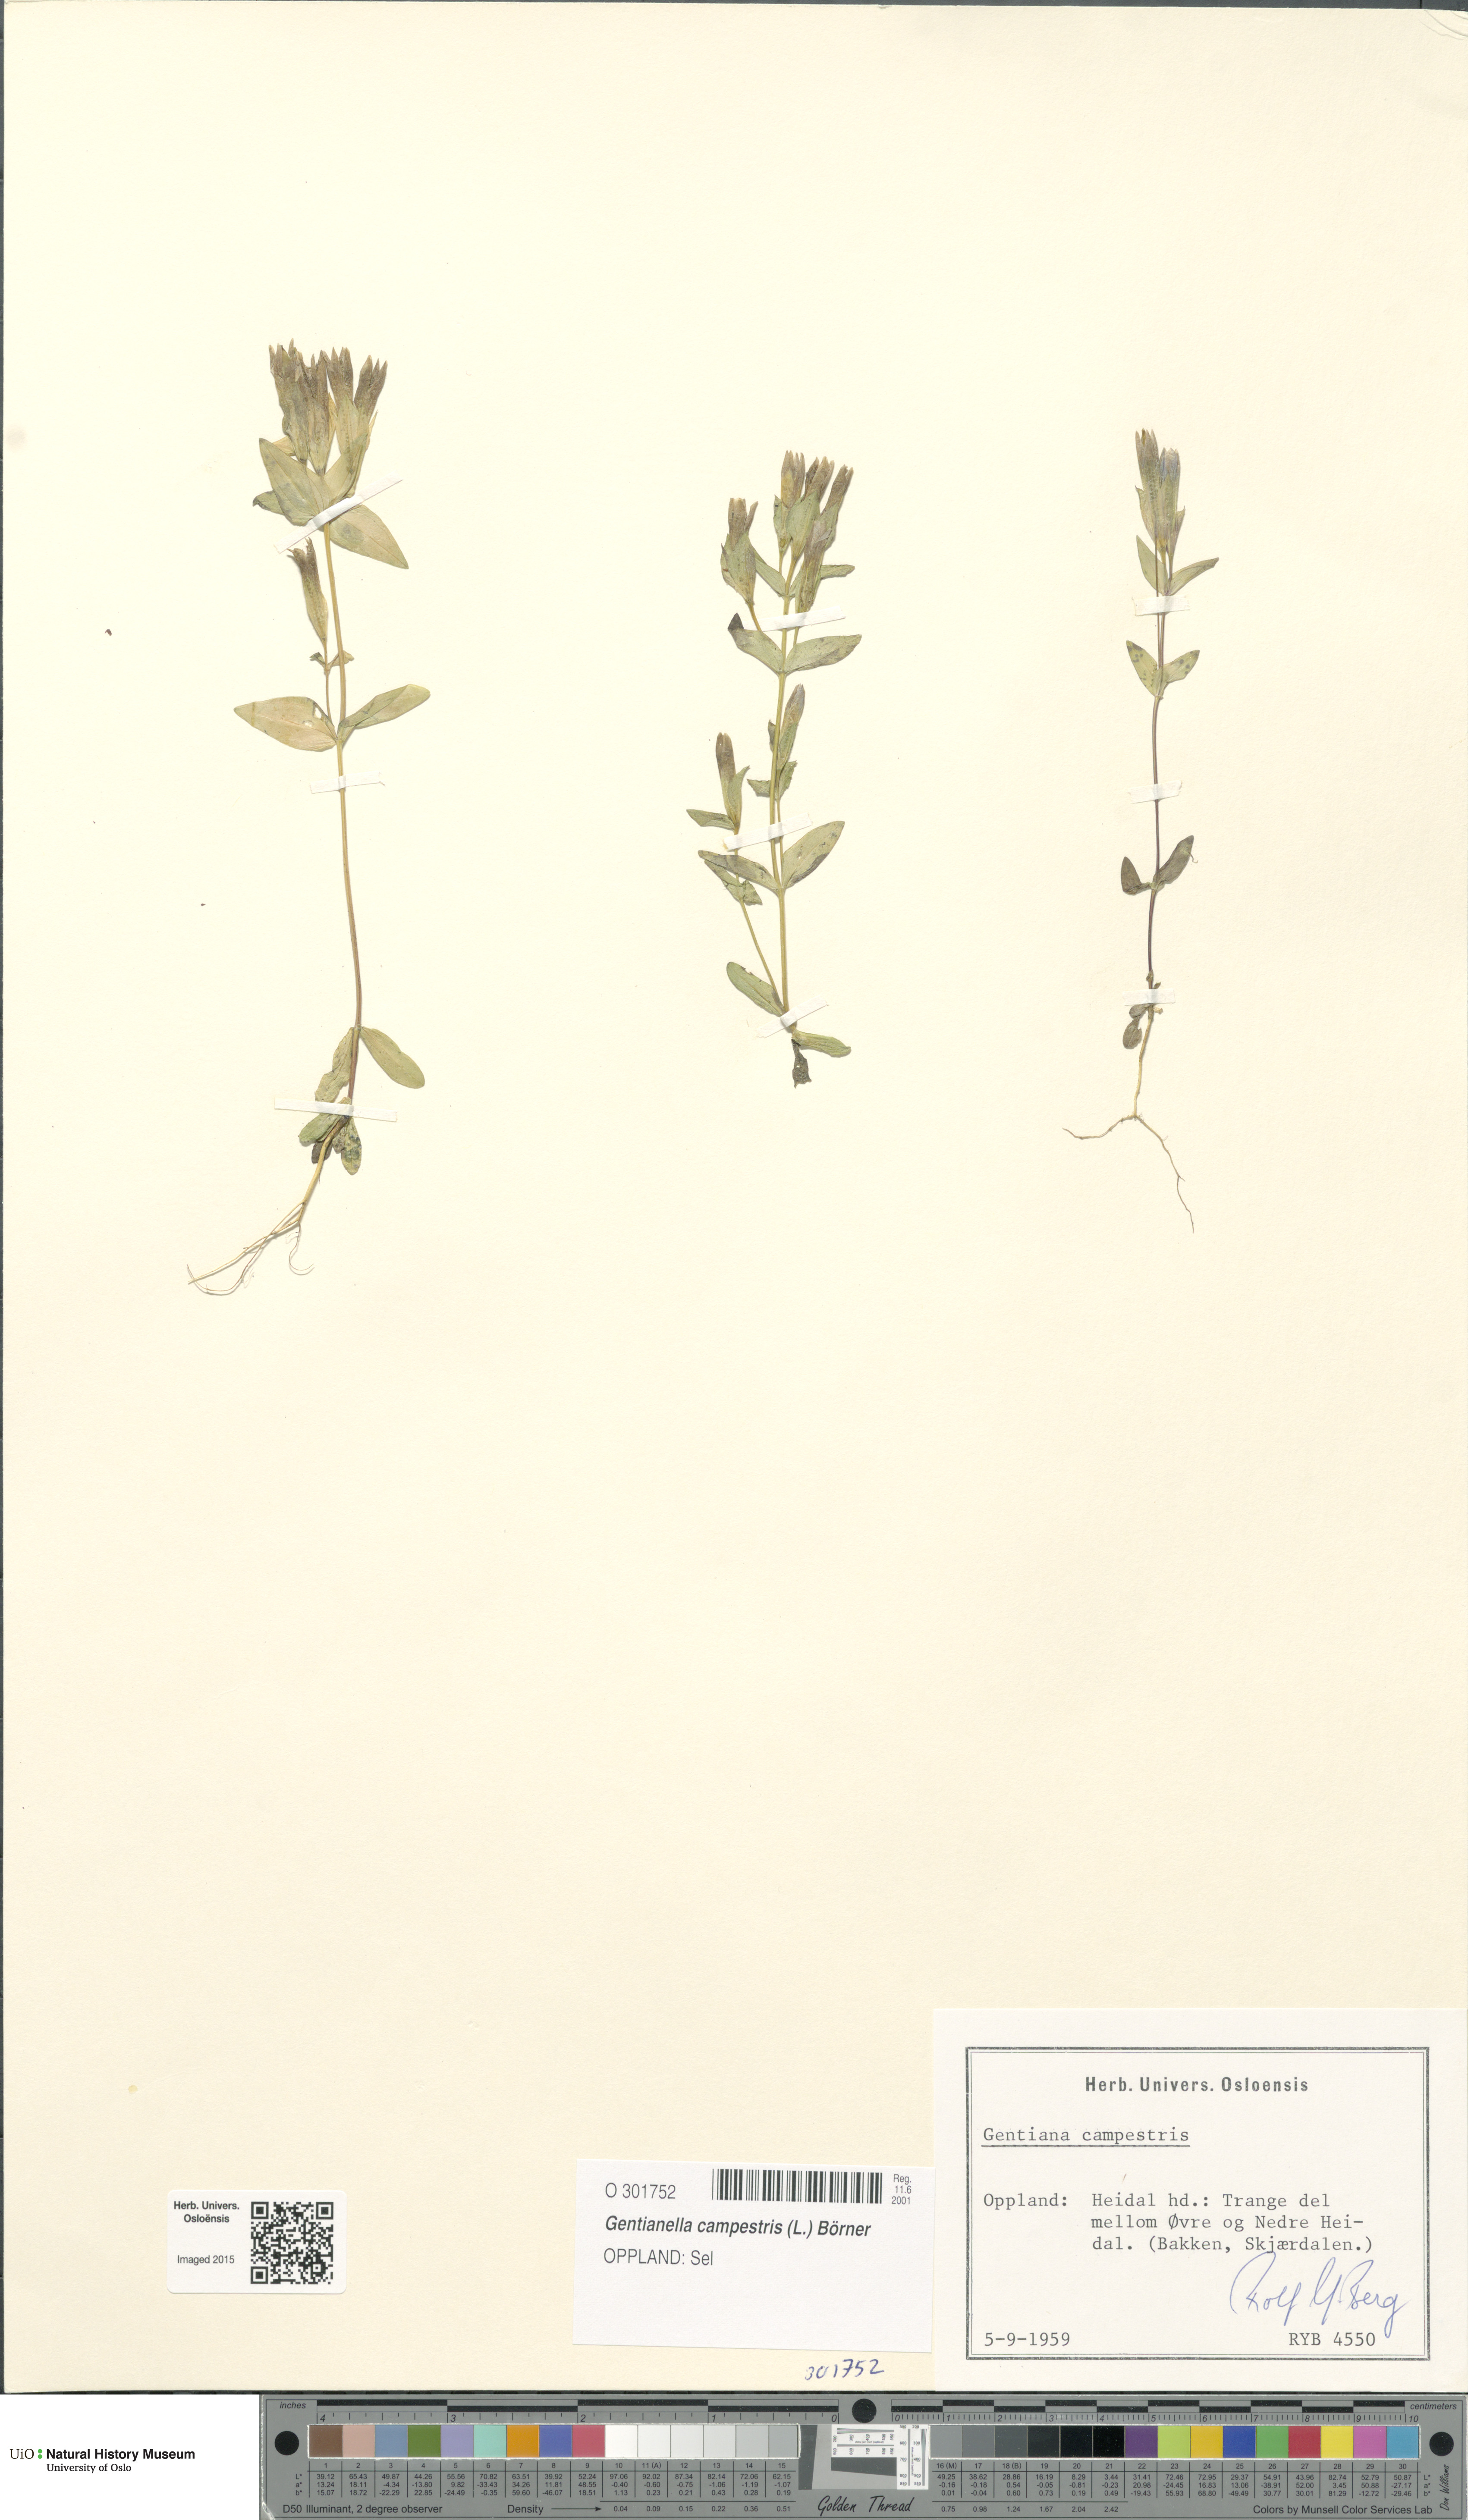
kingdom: Plantae
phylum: Tracheophyta
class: Magnoliopsida
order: Gentianales
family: Gentianaceae
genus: Gentianella
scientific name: Gentianella campestris
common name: Field gentian
